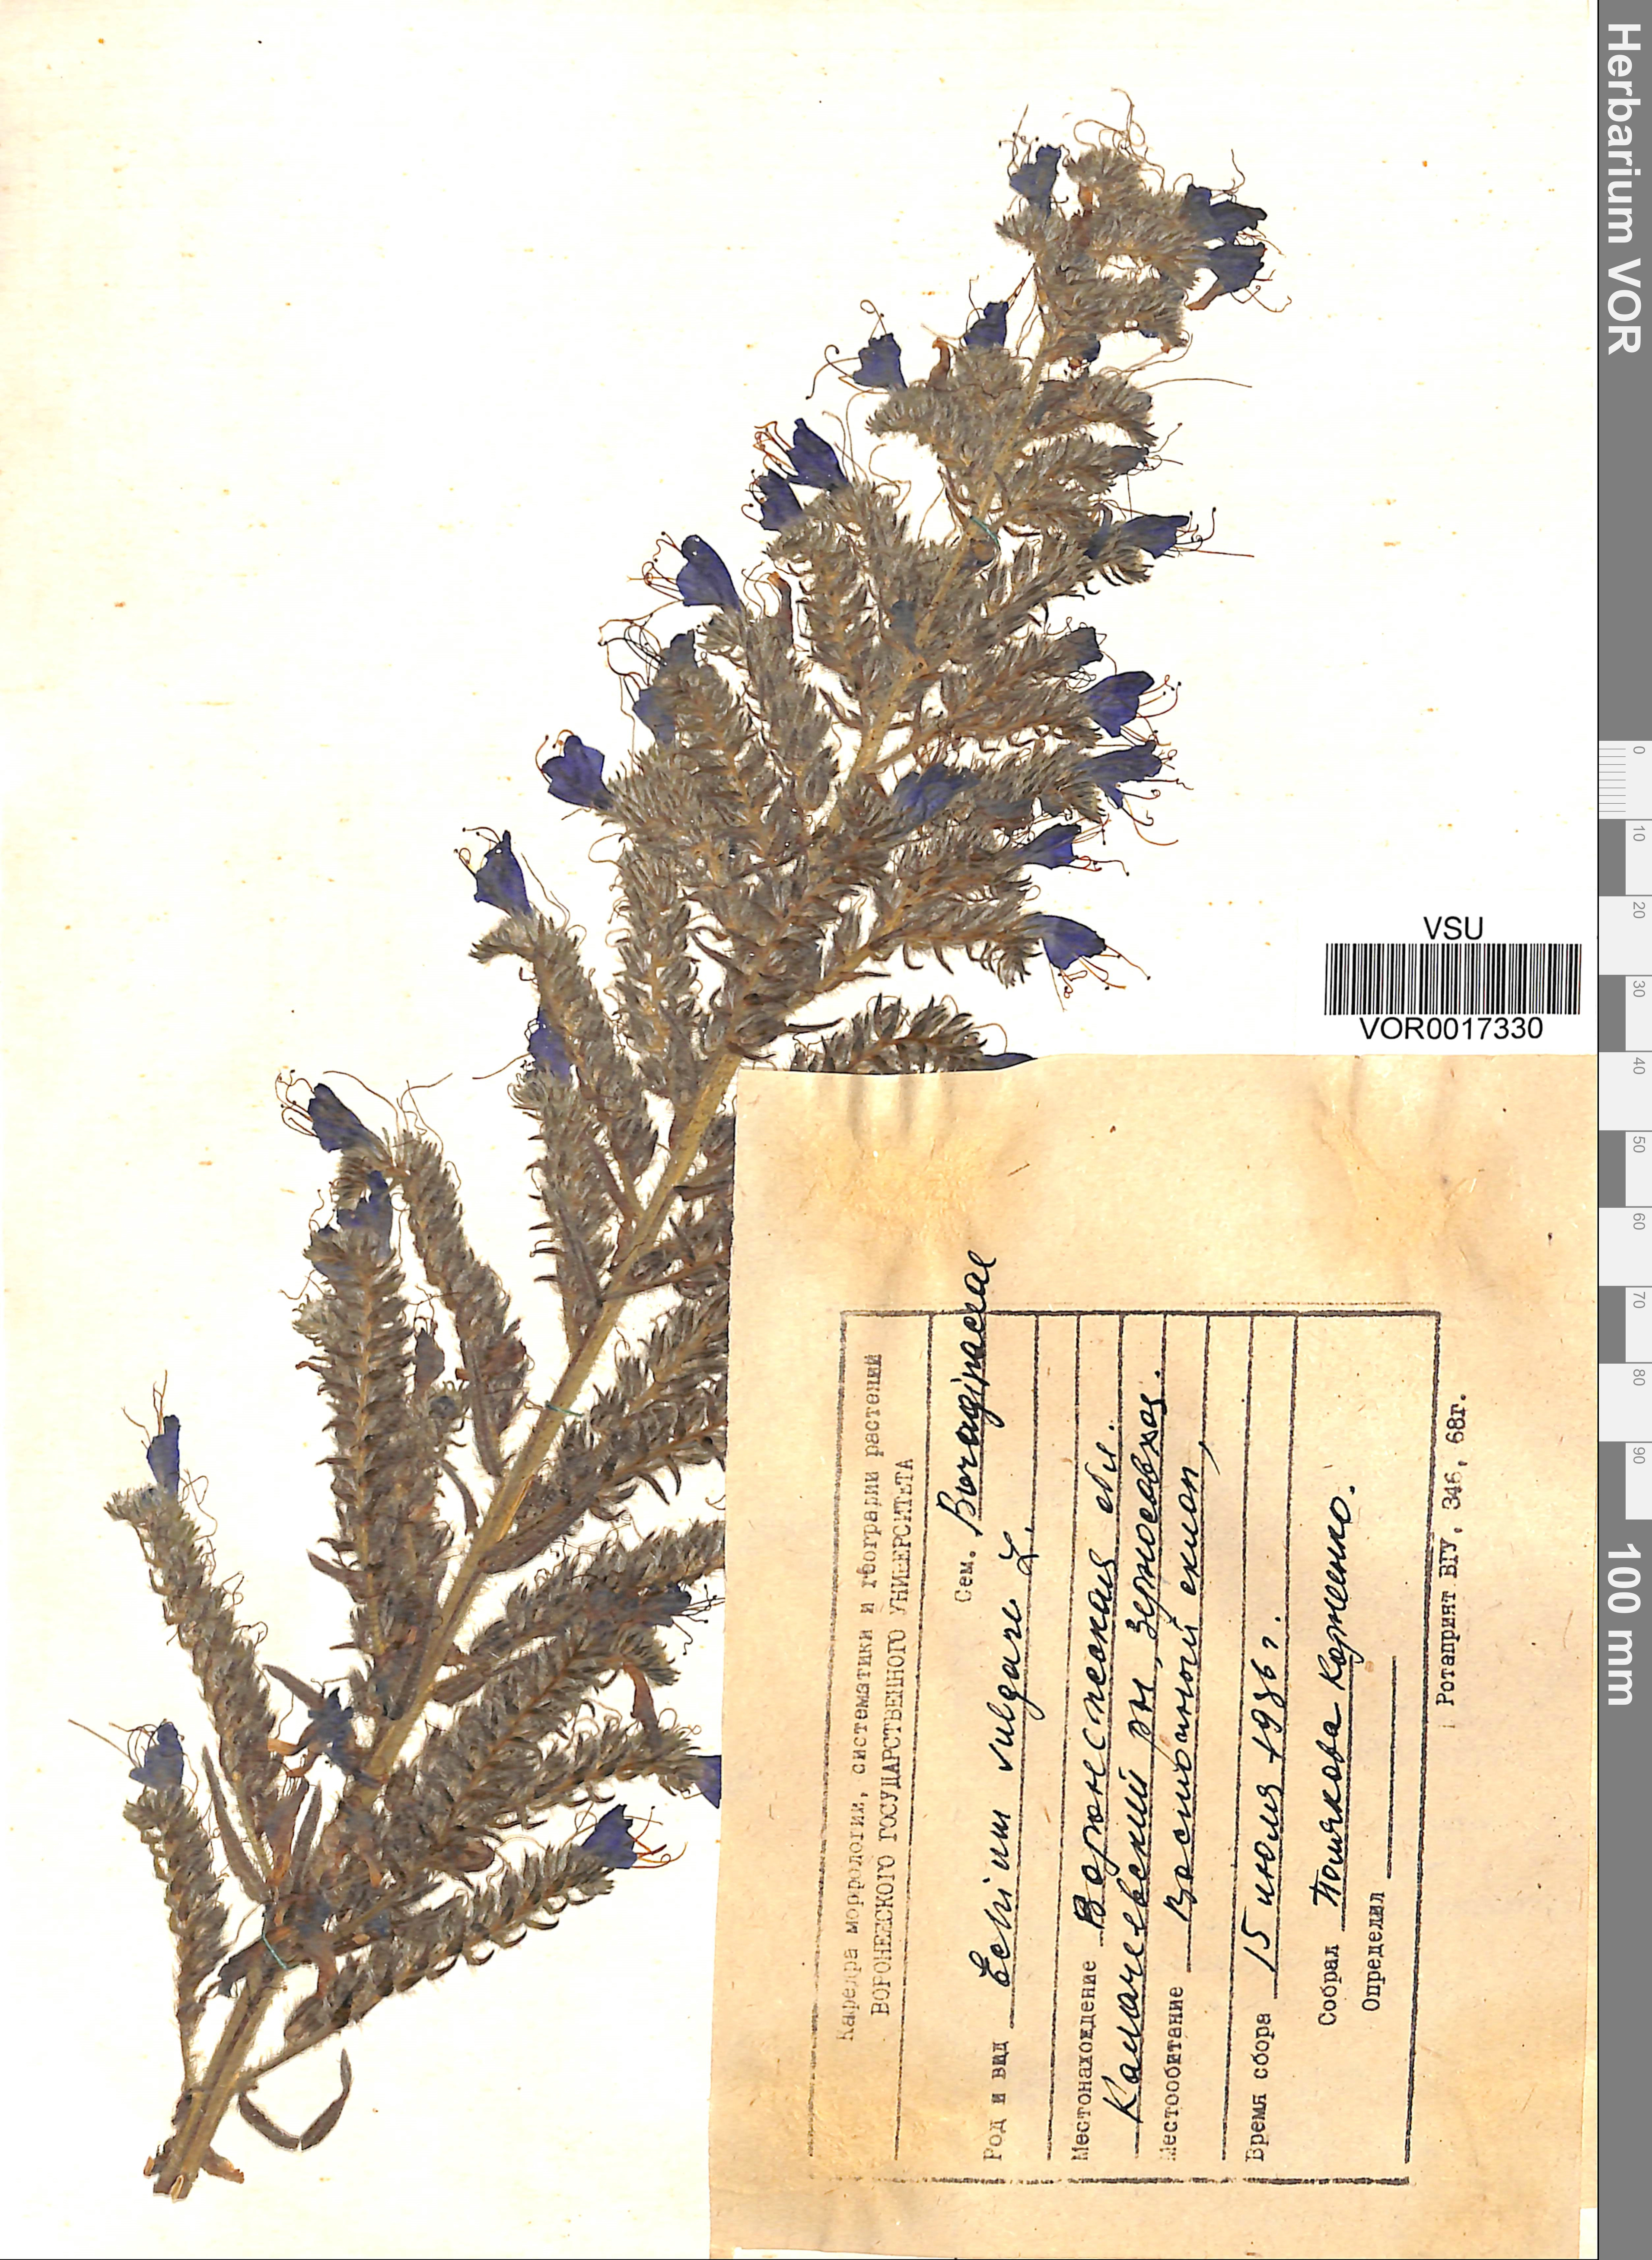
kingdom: Plantae
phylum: Tracheophyta
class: Magnoliopsida
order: Boraginales
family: Boraginaceae
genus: Echium
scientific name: Echium vulgare
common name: Common viper's bugloss
